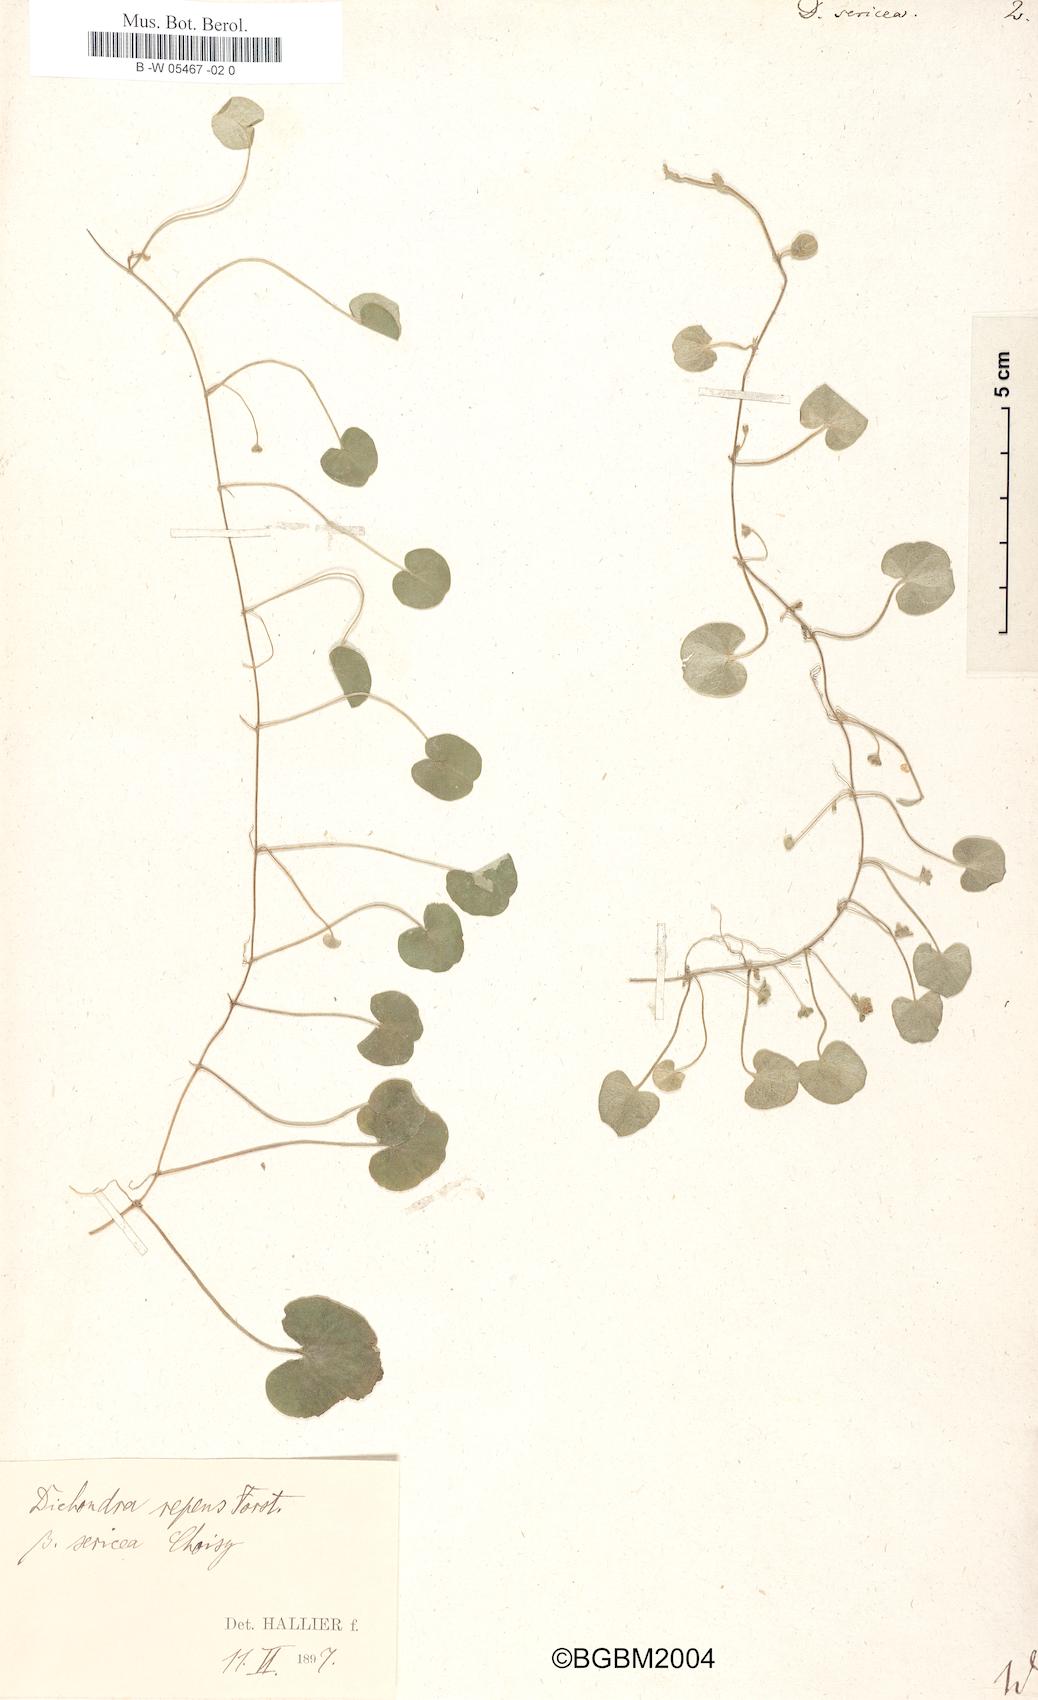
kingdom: Plantae
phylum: Tracheophyta
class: Magnoliopsida
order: Solanales
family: Convolvulaceae
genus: Dichondra
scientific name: Dichondra sericea
